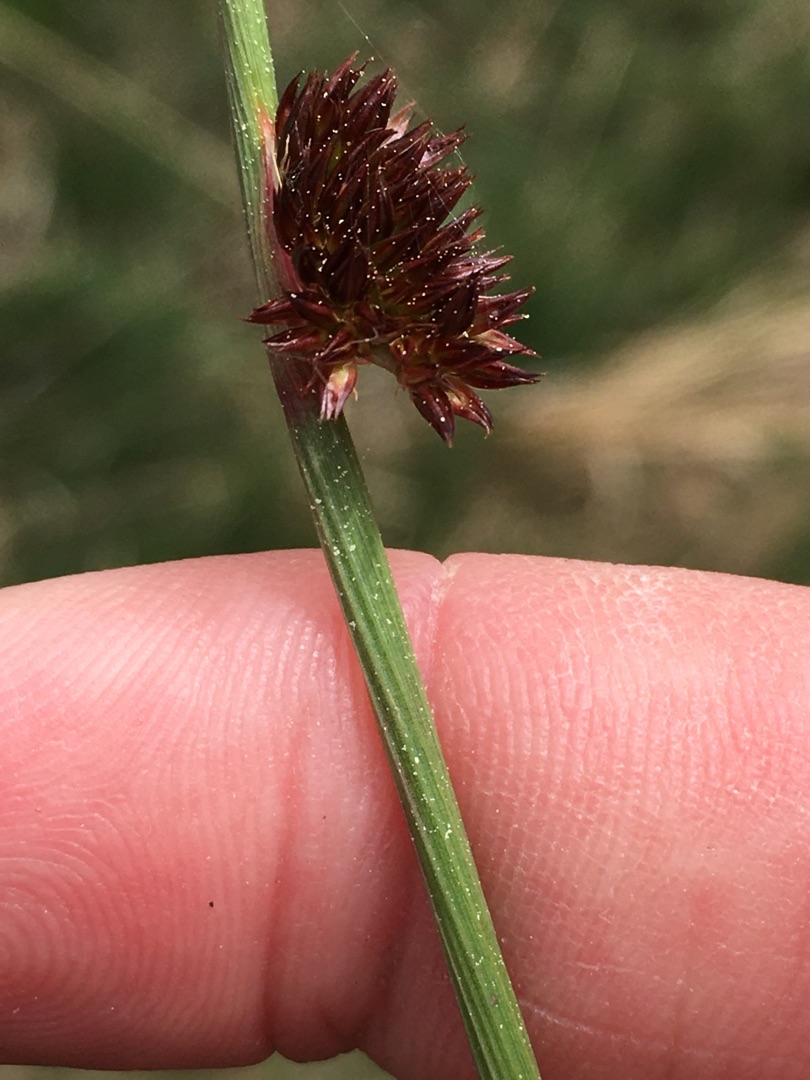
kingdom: Plantae
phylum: Tracheophyta
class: Liliopsida
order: Poales
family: Juncaceae
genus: Juncus
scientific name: Juncus conglomeratus
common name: Knop-siv
